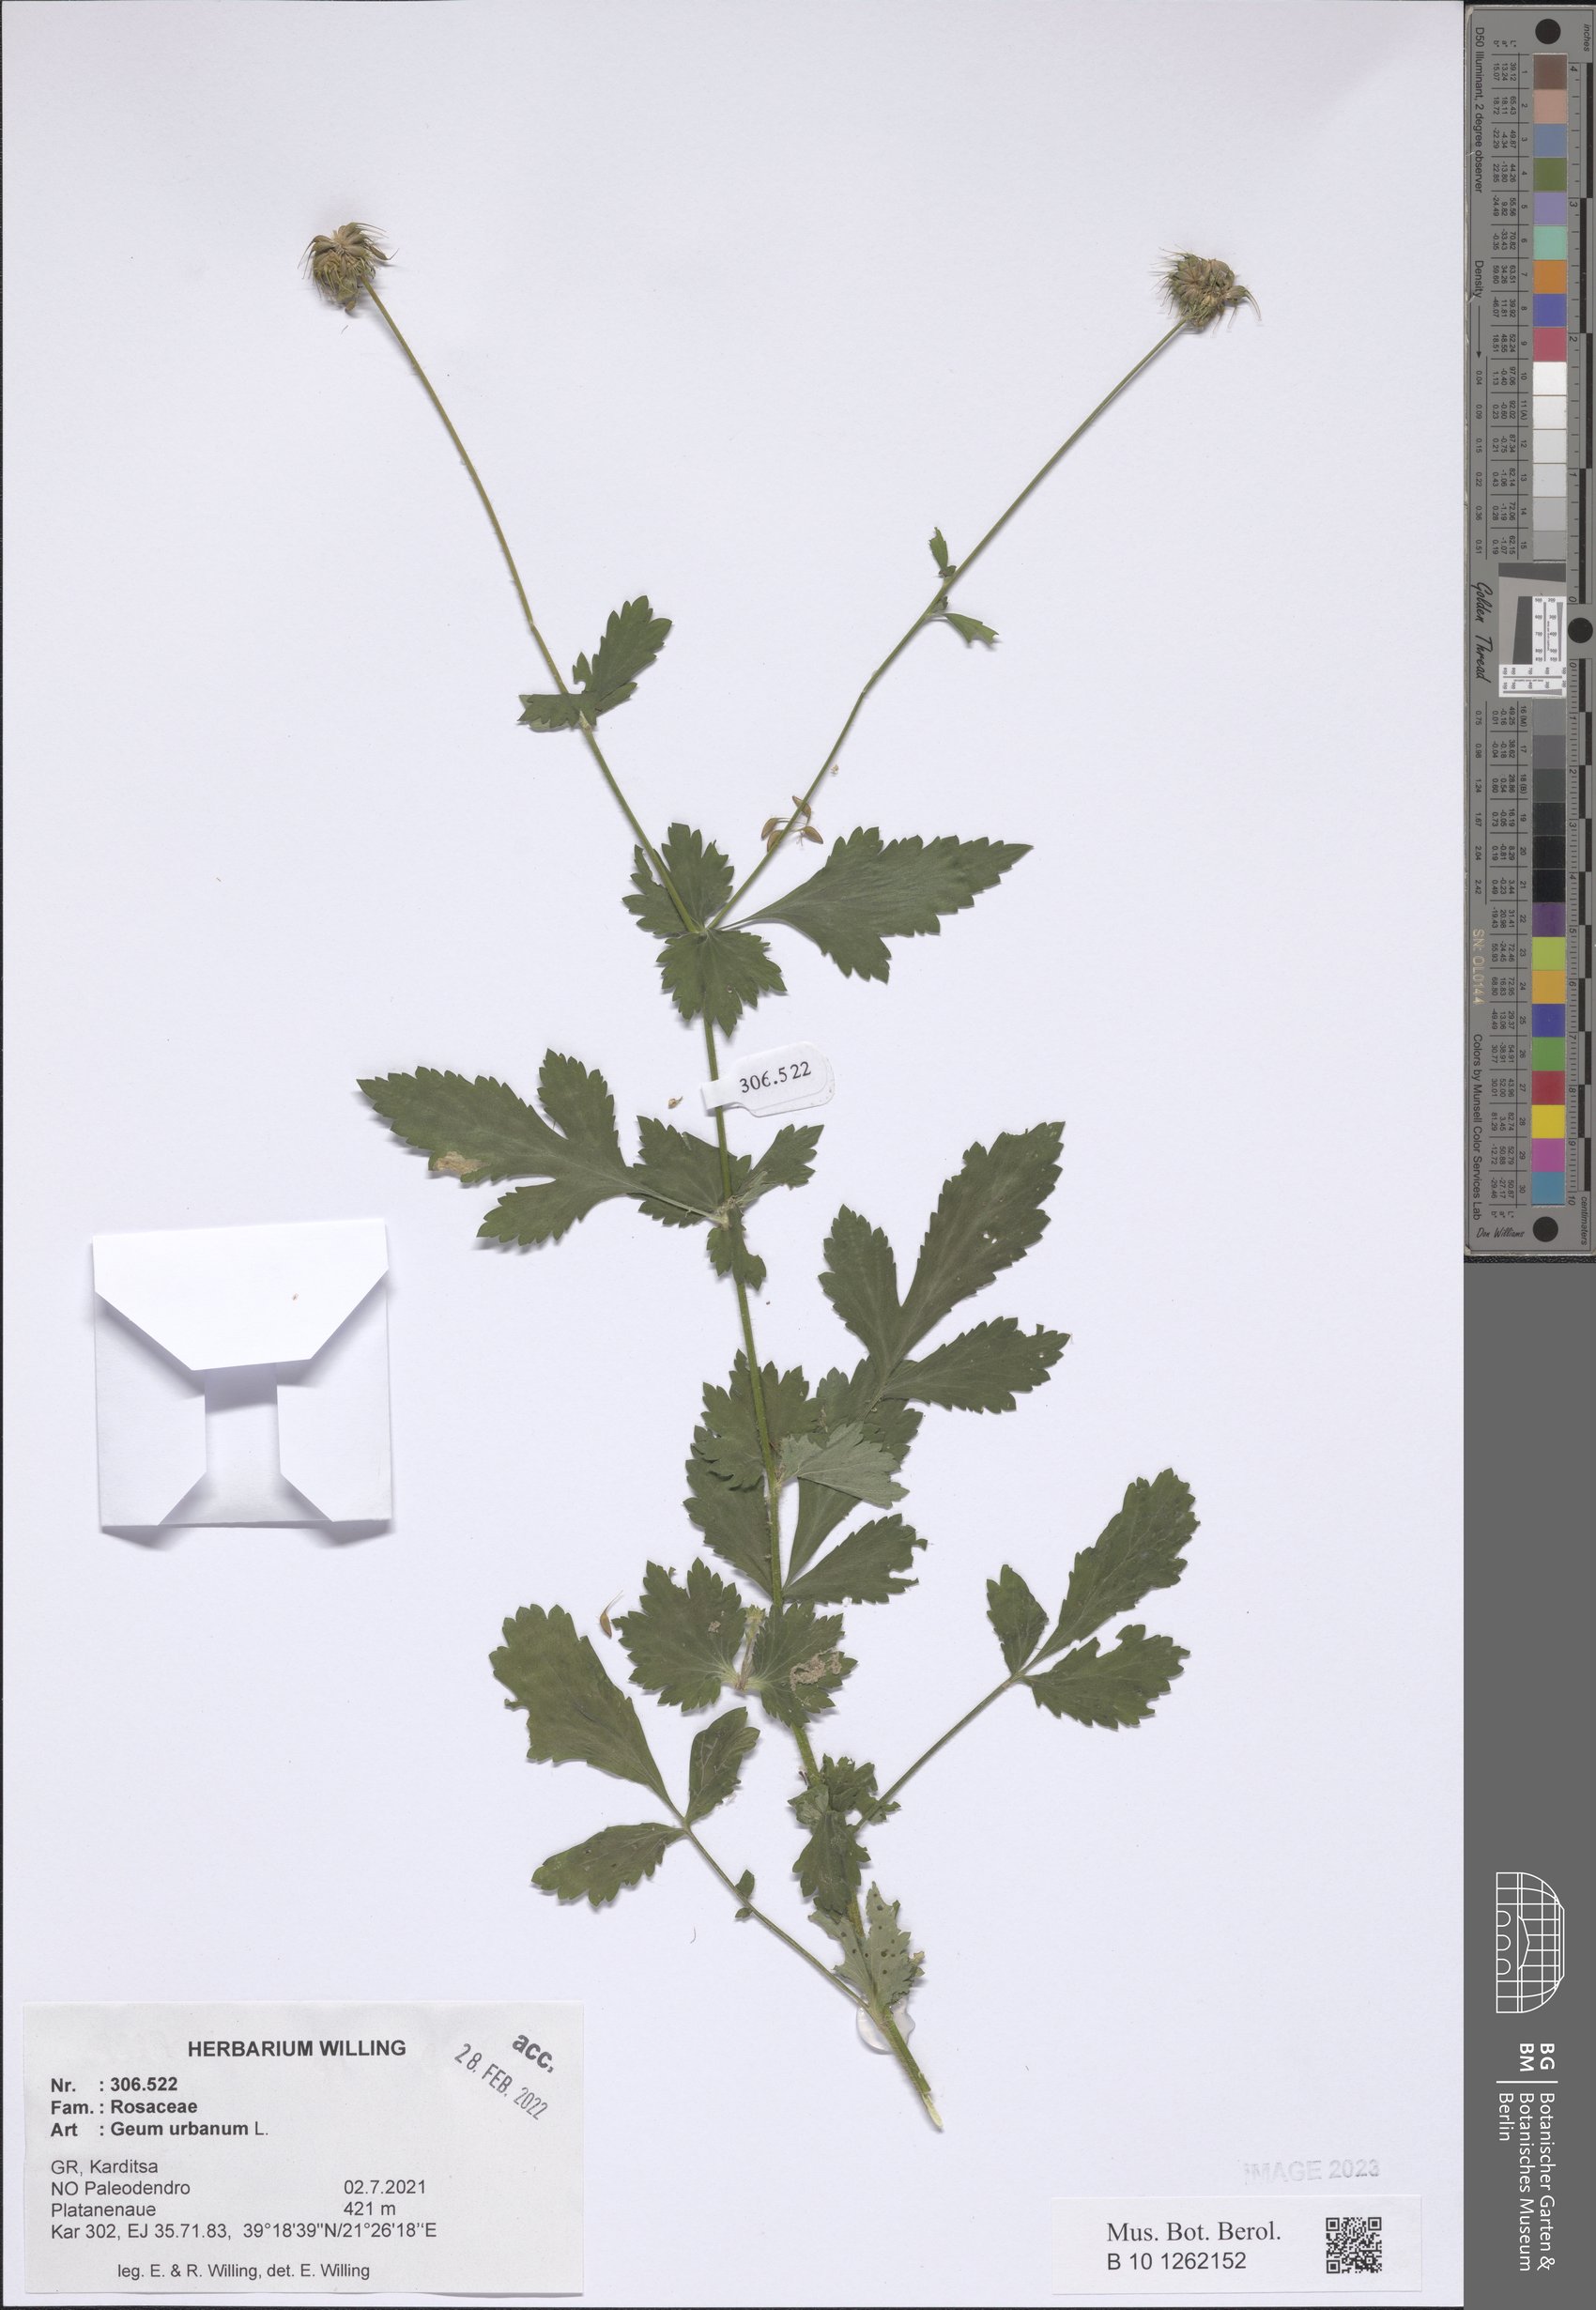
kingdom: Plantae
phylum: Tracheophyta
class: Magnoliopsida
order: Rosales
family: Rosaceae
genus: Geum
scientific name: Geum urbanum
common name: Wood avens
